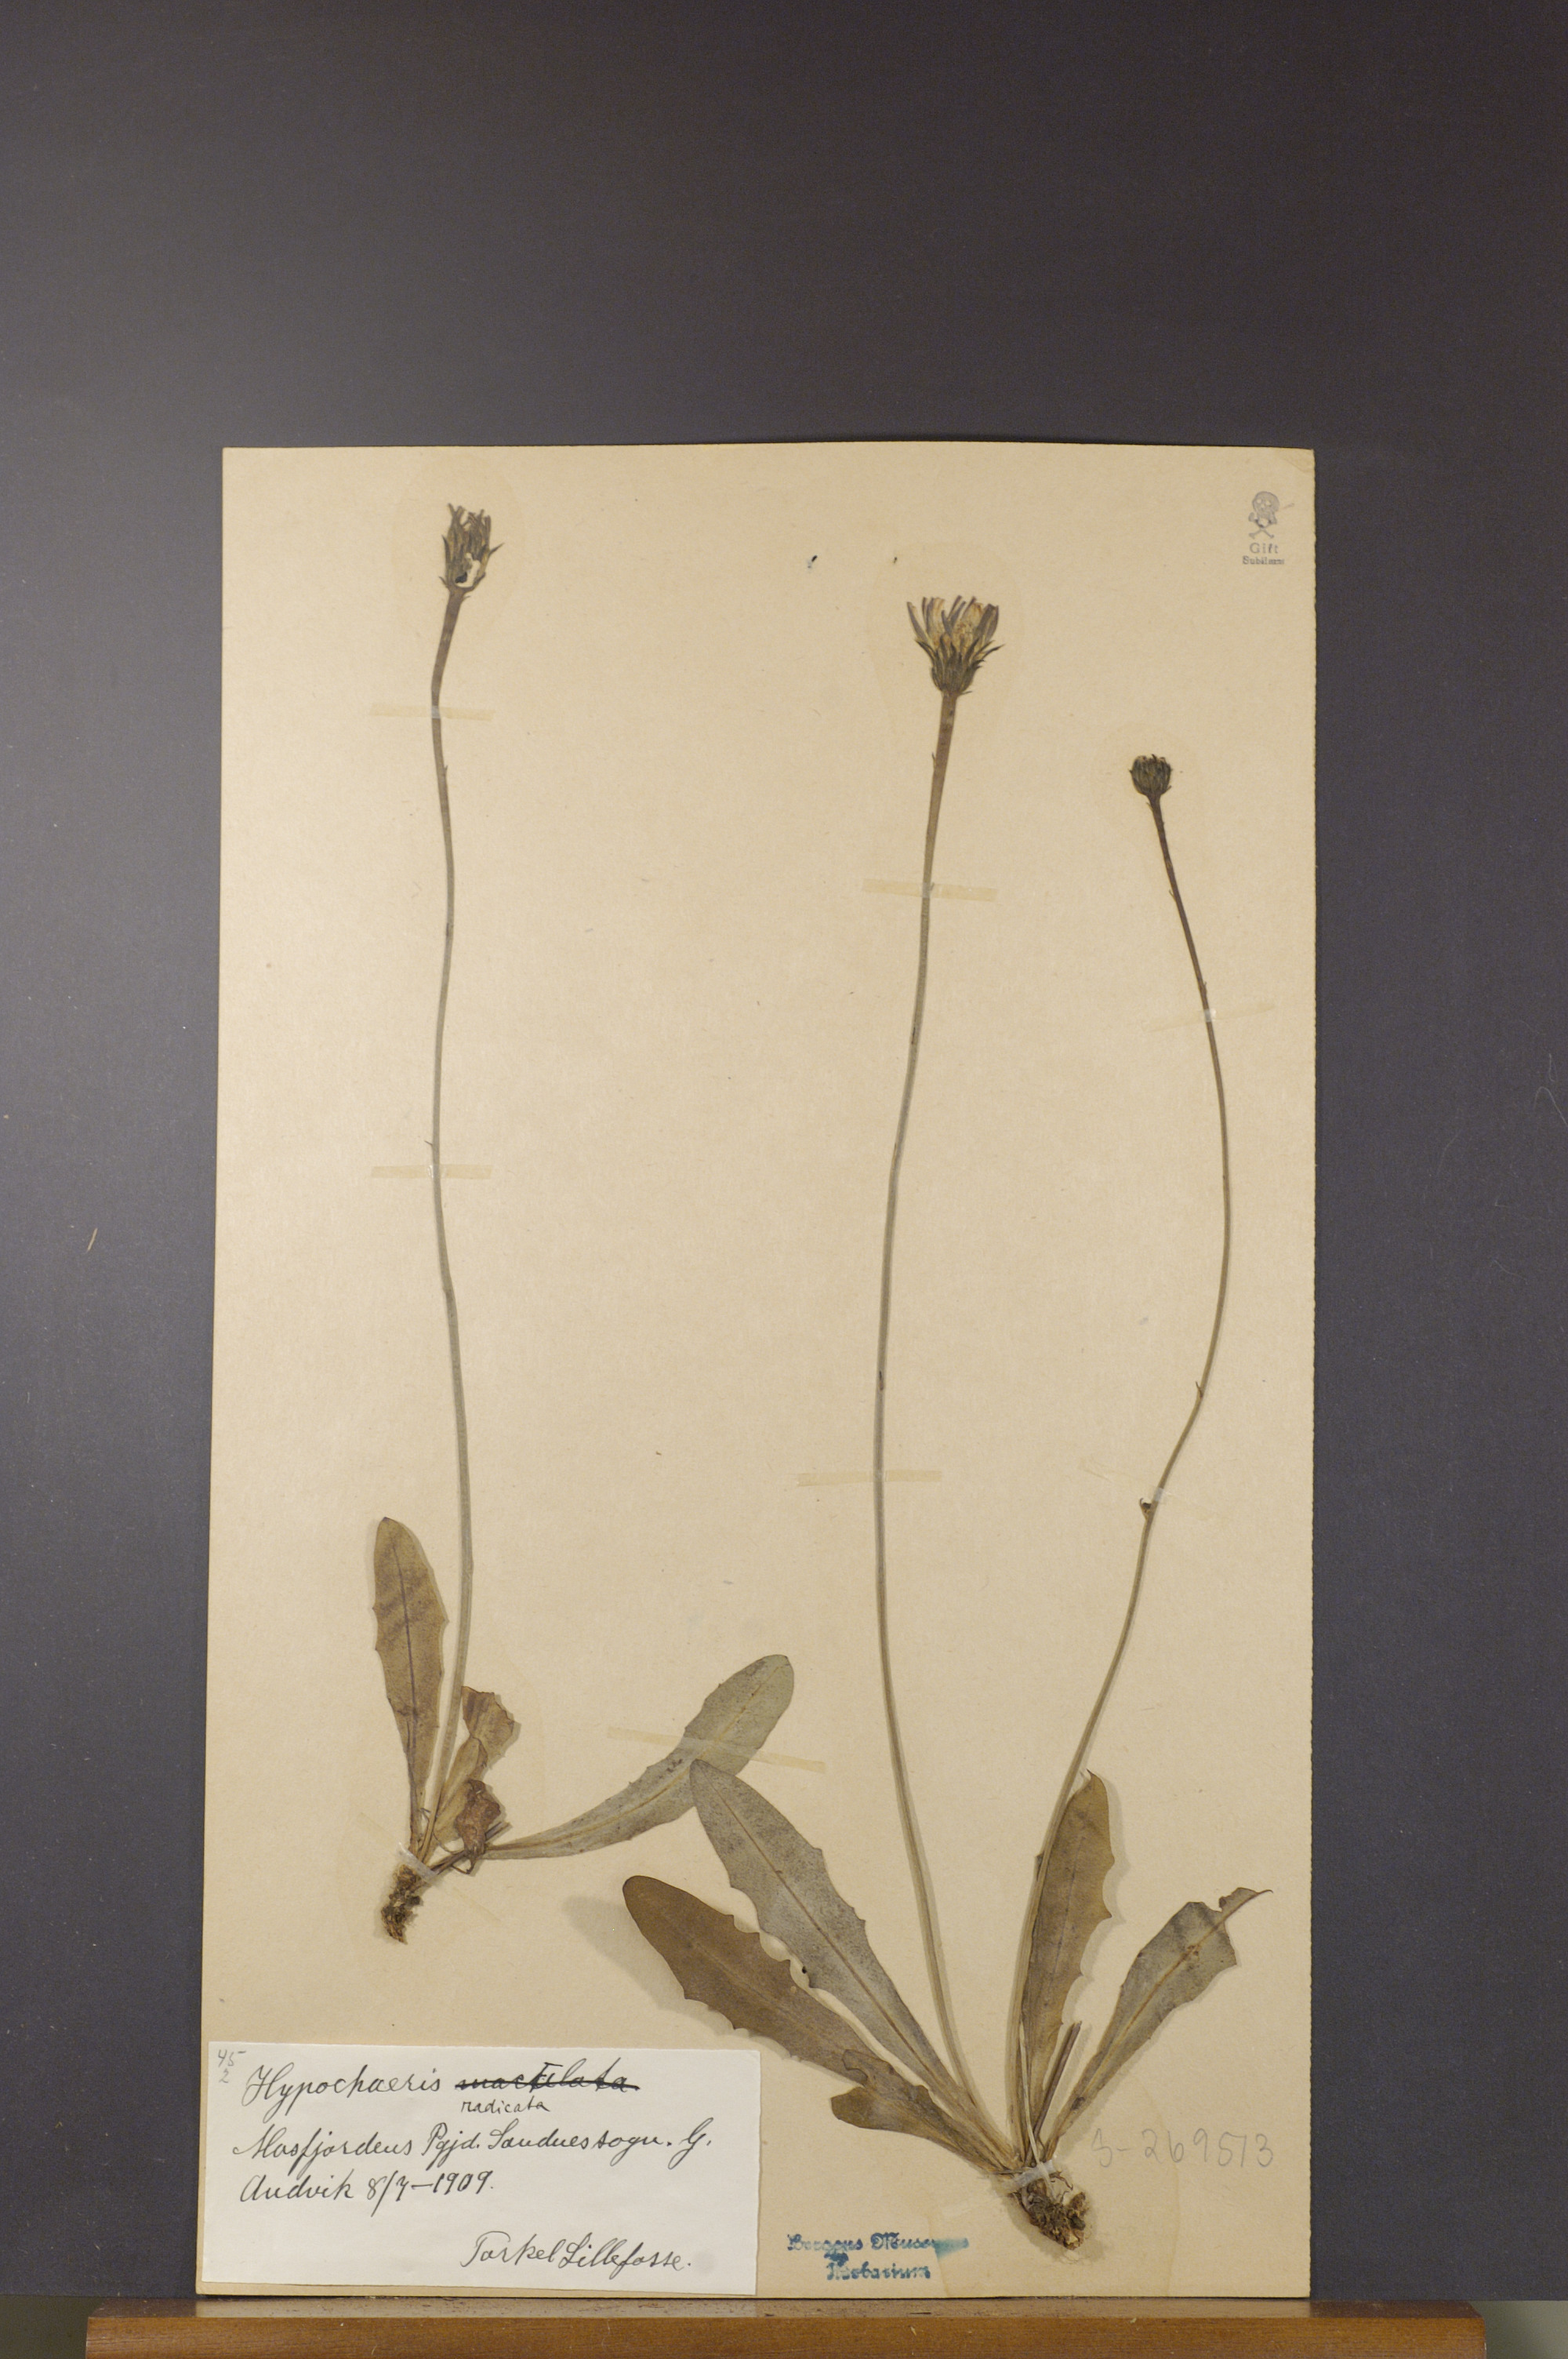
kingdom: Plantae
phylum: Tracheophyta
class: Magnoliopsida
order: Asterales
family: Asteraceae
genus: Hypochaeris
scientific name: Hypochaeris radicata
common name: Flatweed
